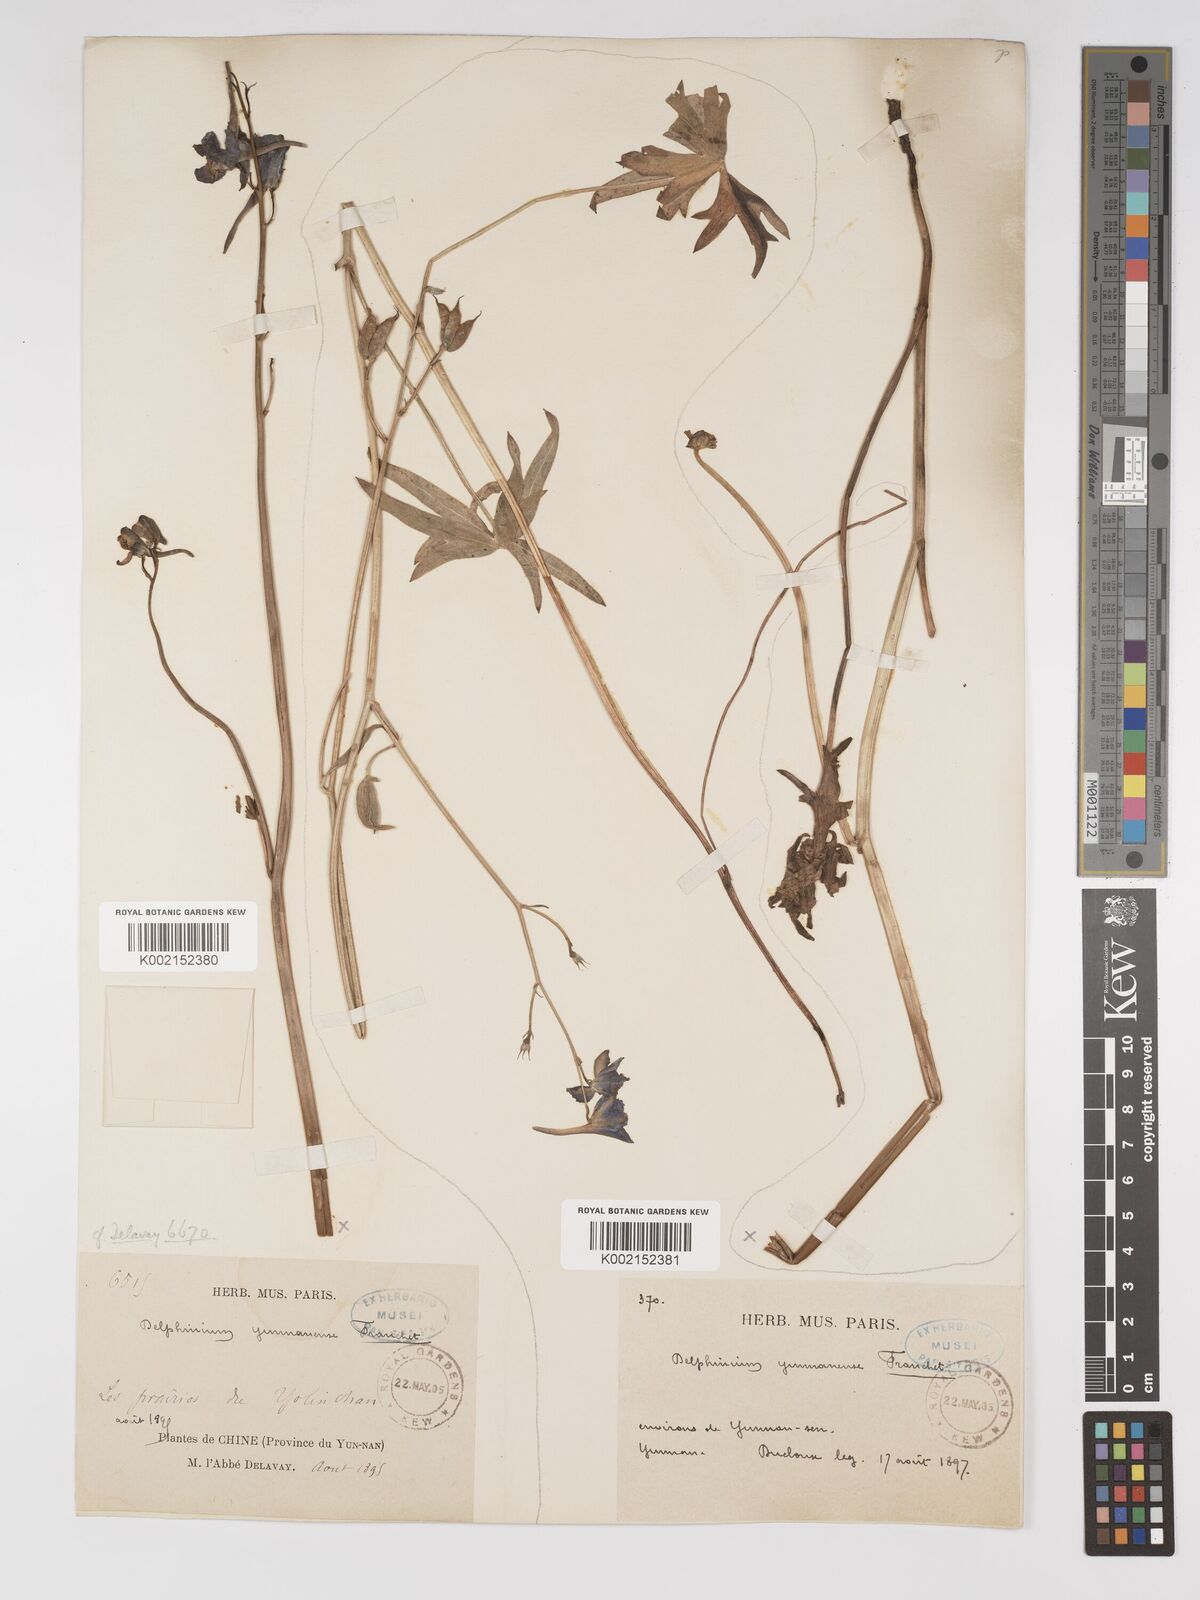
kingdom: Plantae
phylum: Tracheophyta
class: Magnoliopsida
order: Ranunculales
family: Ranunculaceae
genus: Delphinium
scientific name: Delphinium yunnanense
